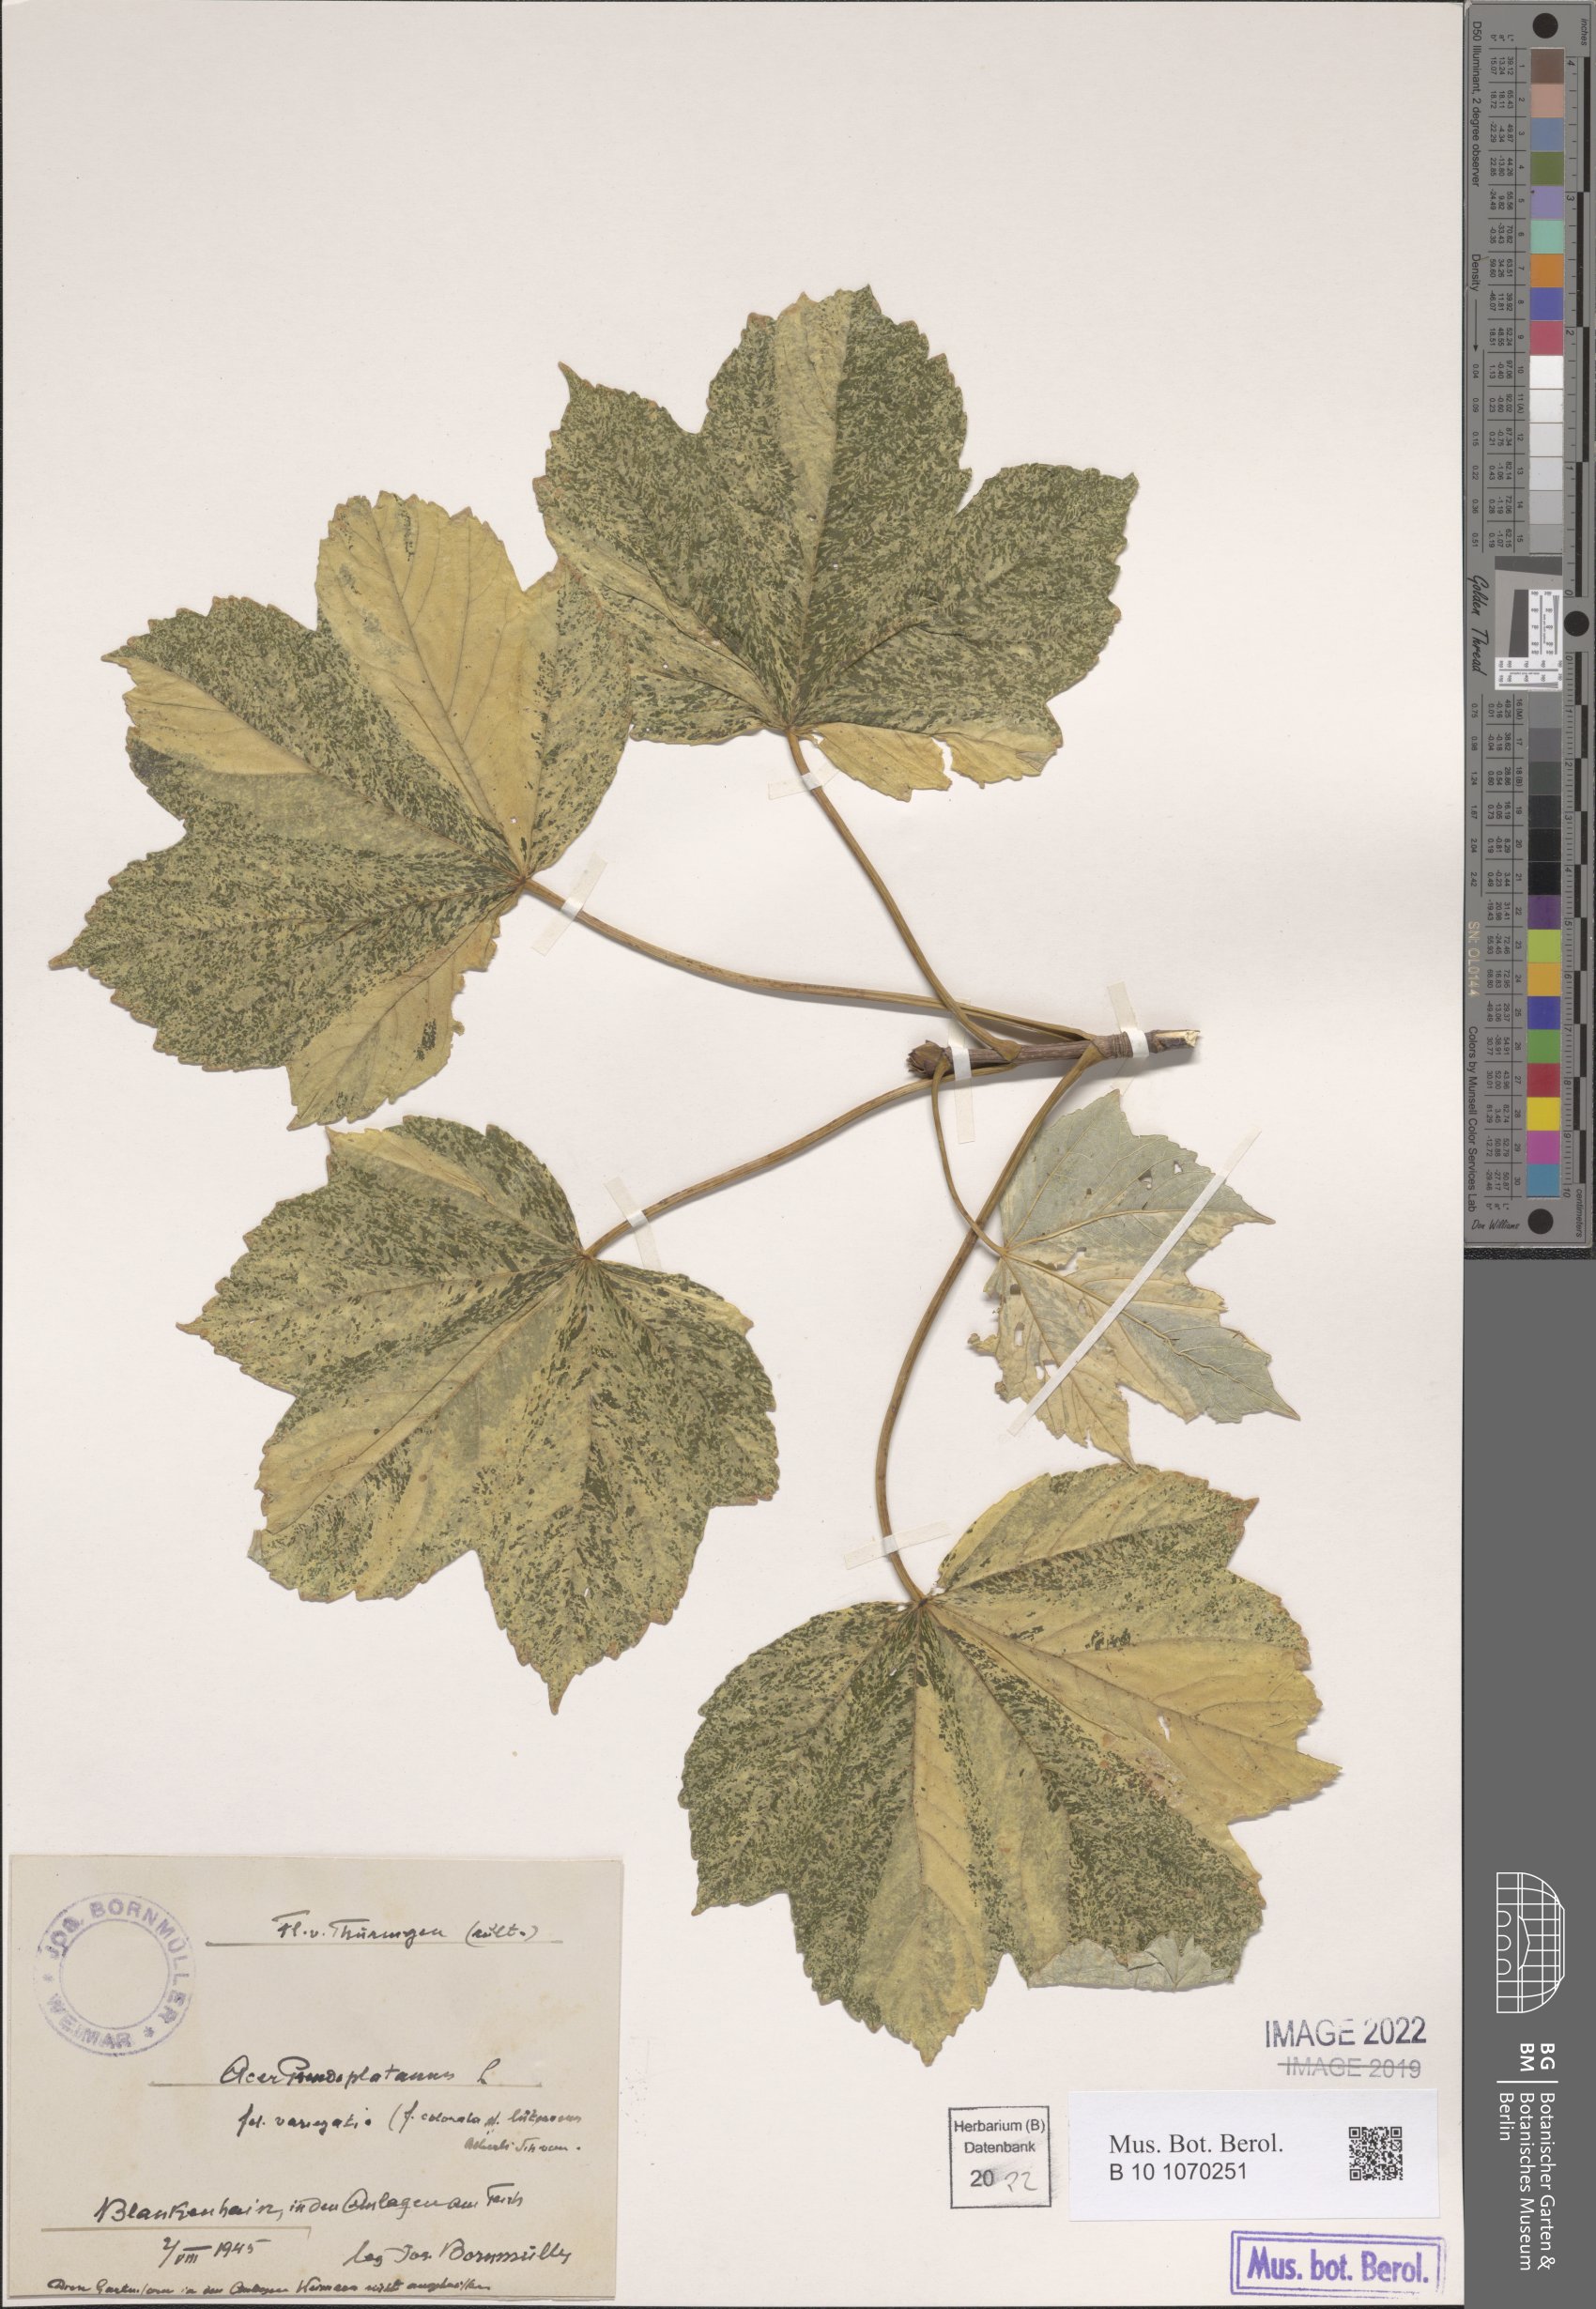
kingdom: Plantae
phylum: Tracheophyta
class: Magnoliopsida
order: Sapindales
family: Sapindaceae
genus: Acer
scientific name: Acer pseudoplatanus
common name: Sycamore
